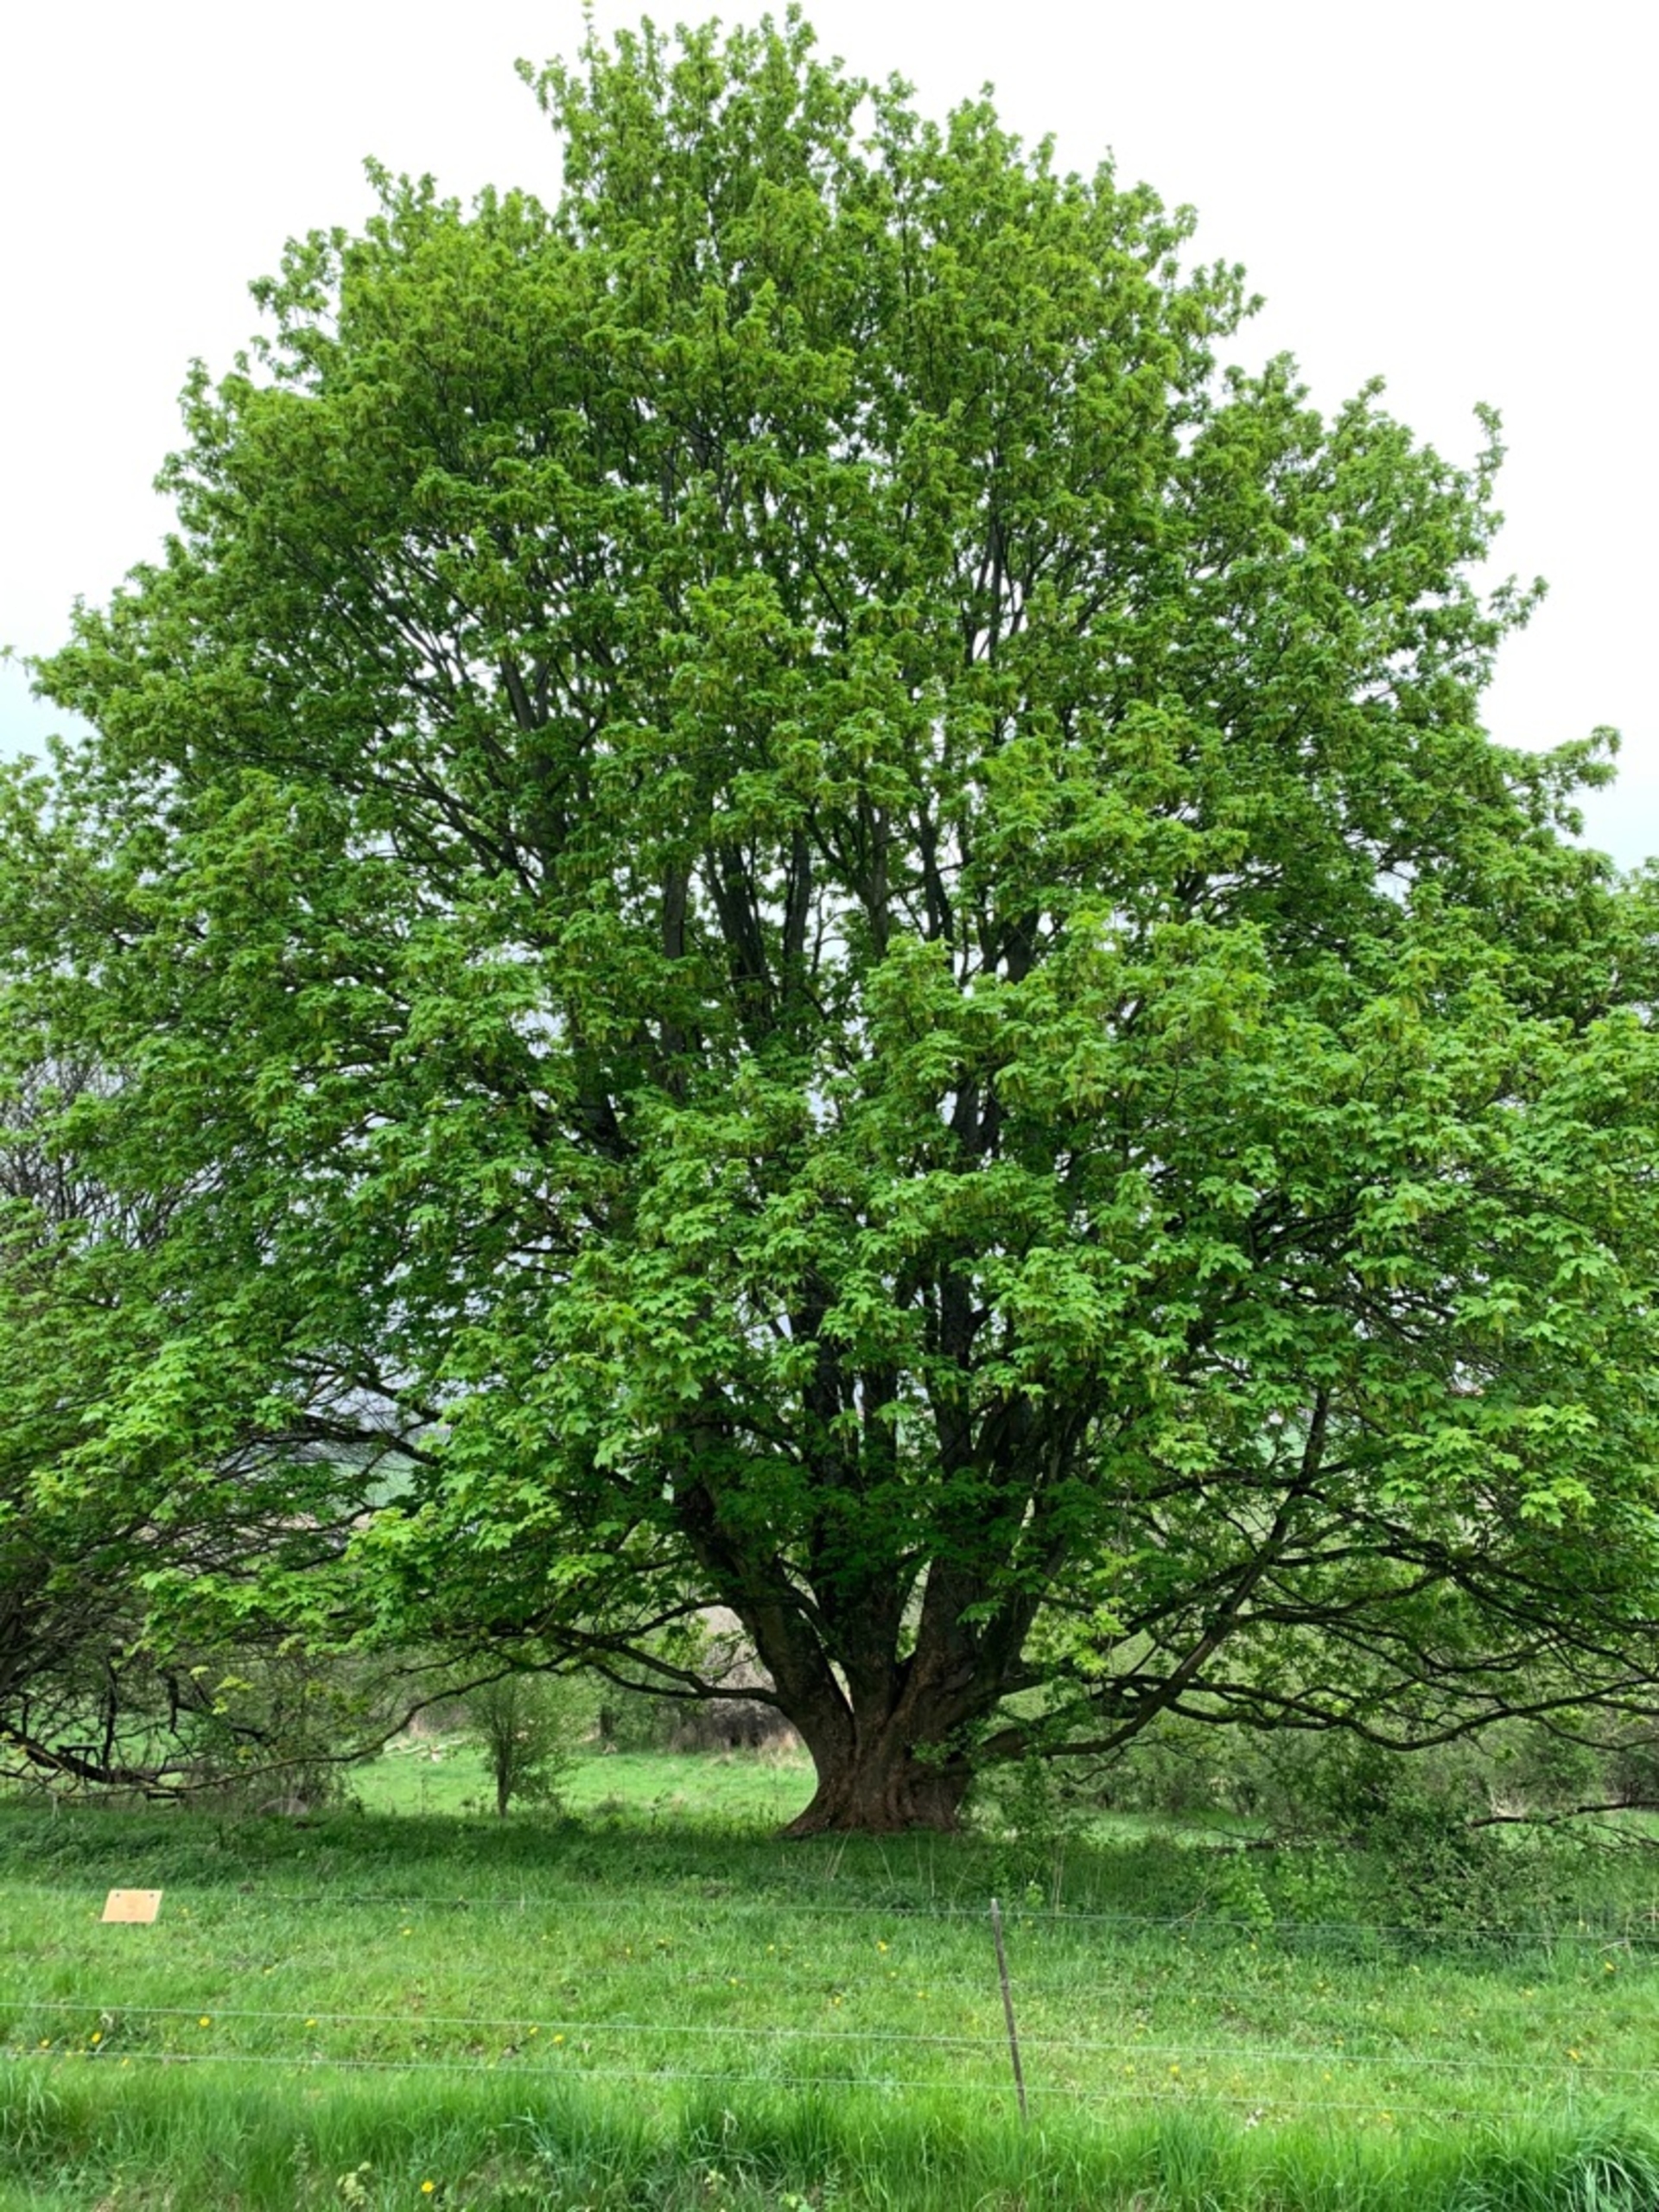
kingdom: Plantae
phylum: Tracheophyta
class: Magnoliopsida
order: Sapindales
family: Sapindaceae
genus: Acer
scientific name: Acer pseudoplatanus
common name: Ahorn
